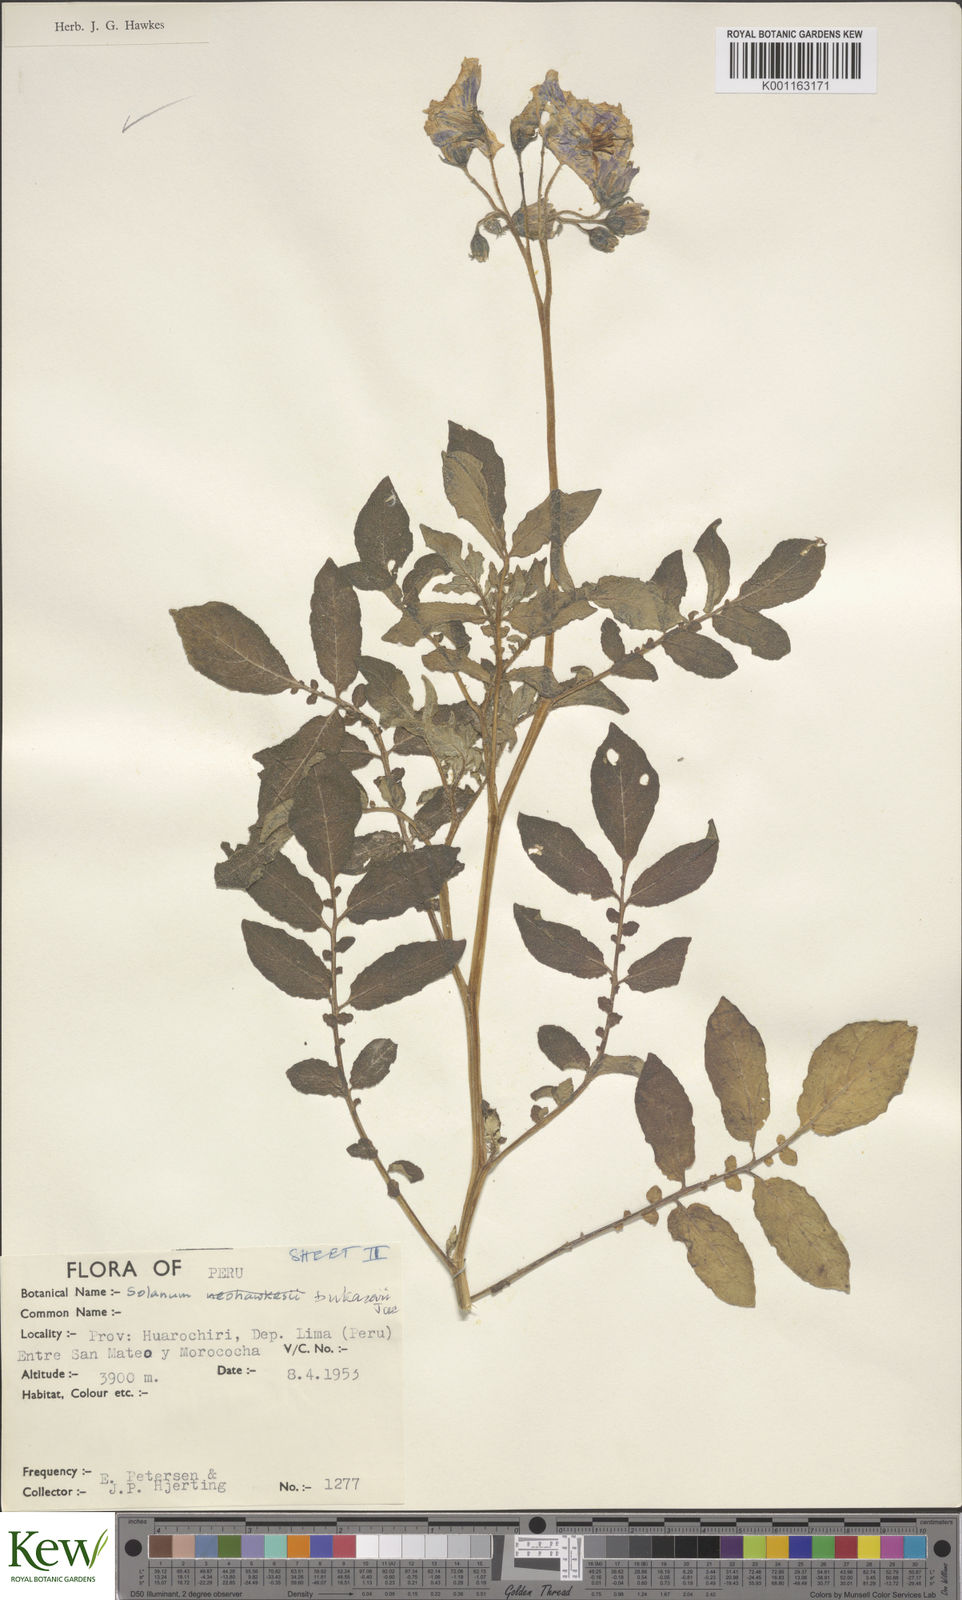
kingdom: Plantae
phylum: Tracheophyta
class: Magnoliopsida
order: Solanales
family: Solanaceae
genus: Solanum
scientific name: Solanum candolleanum
